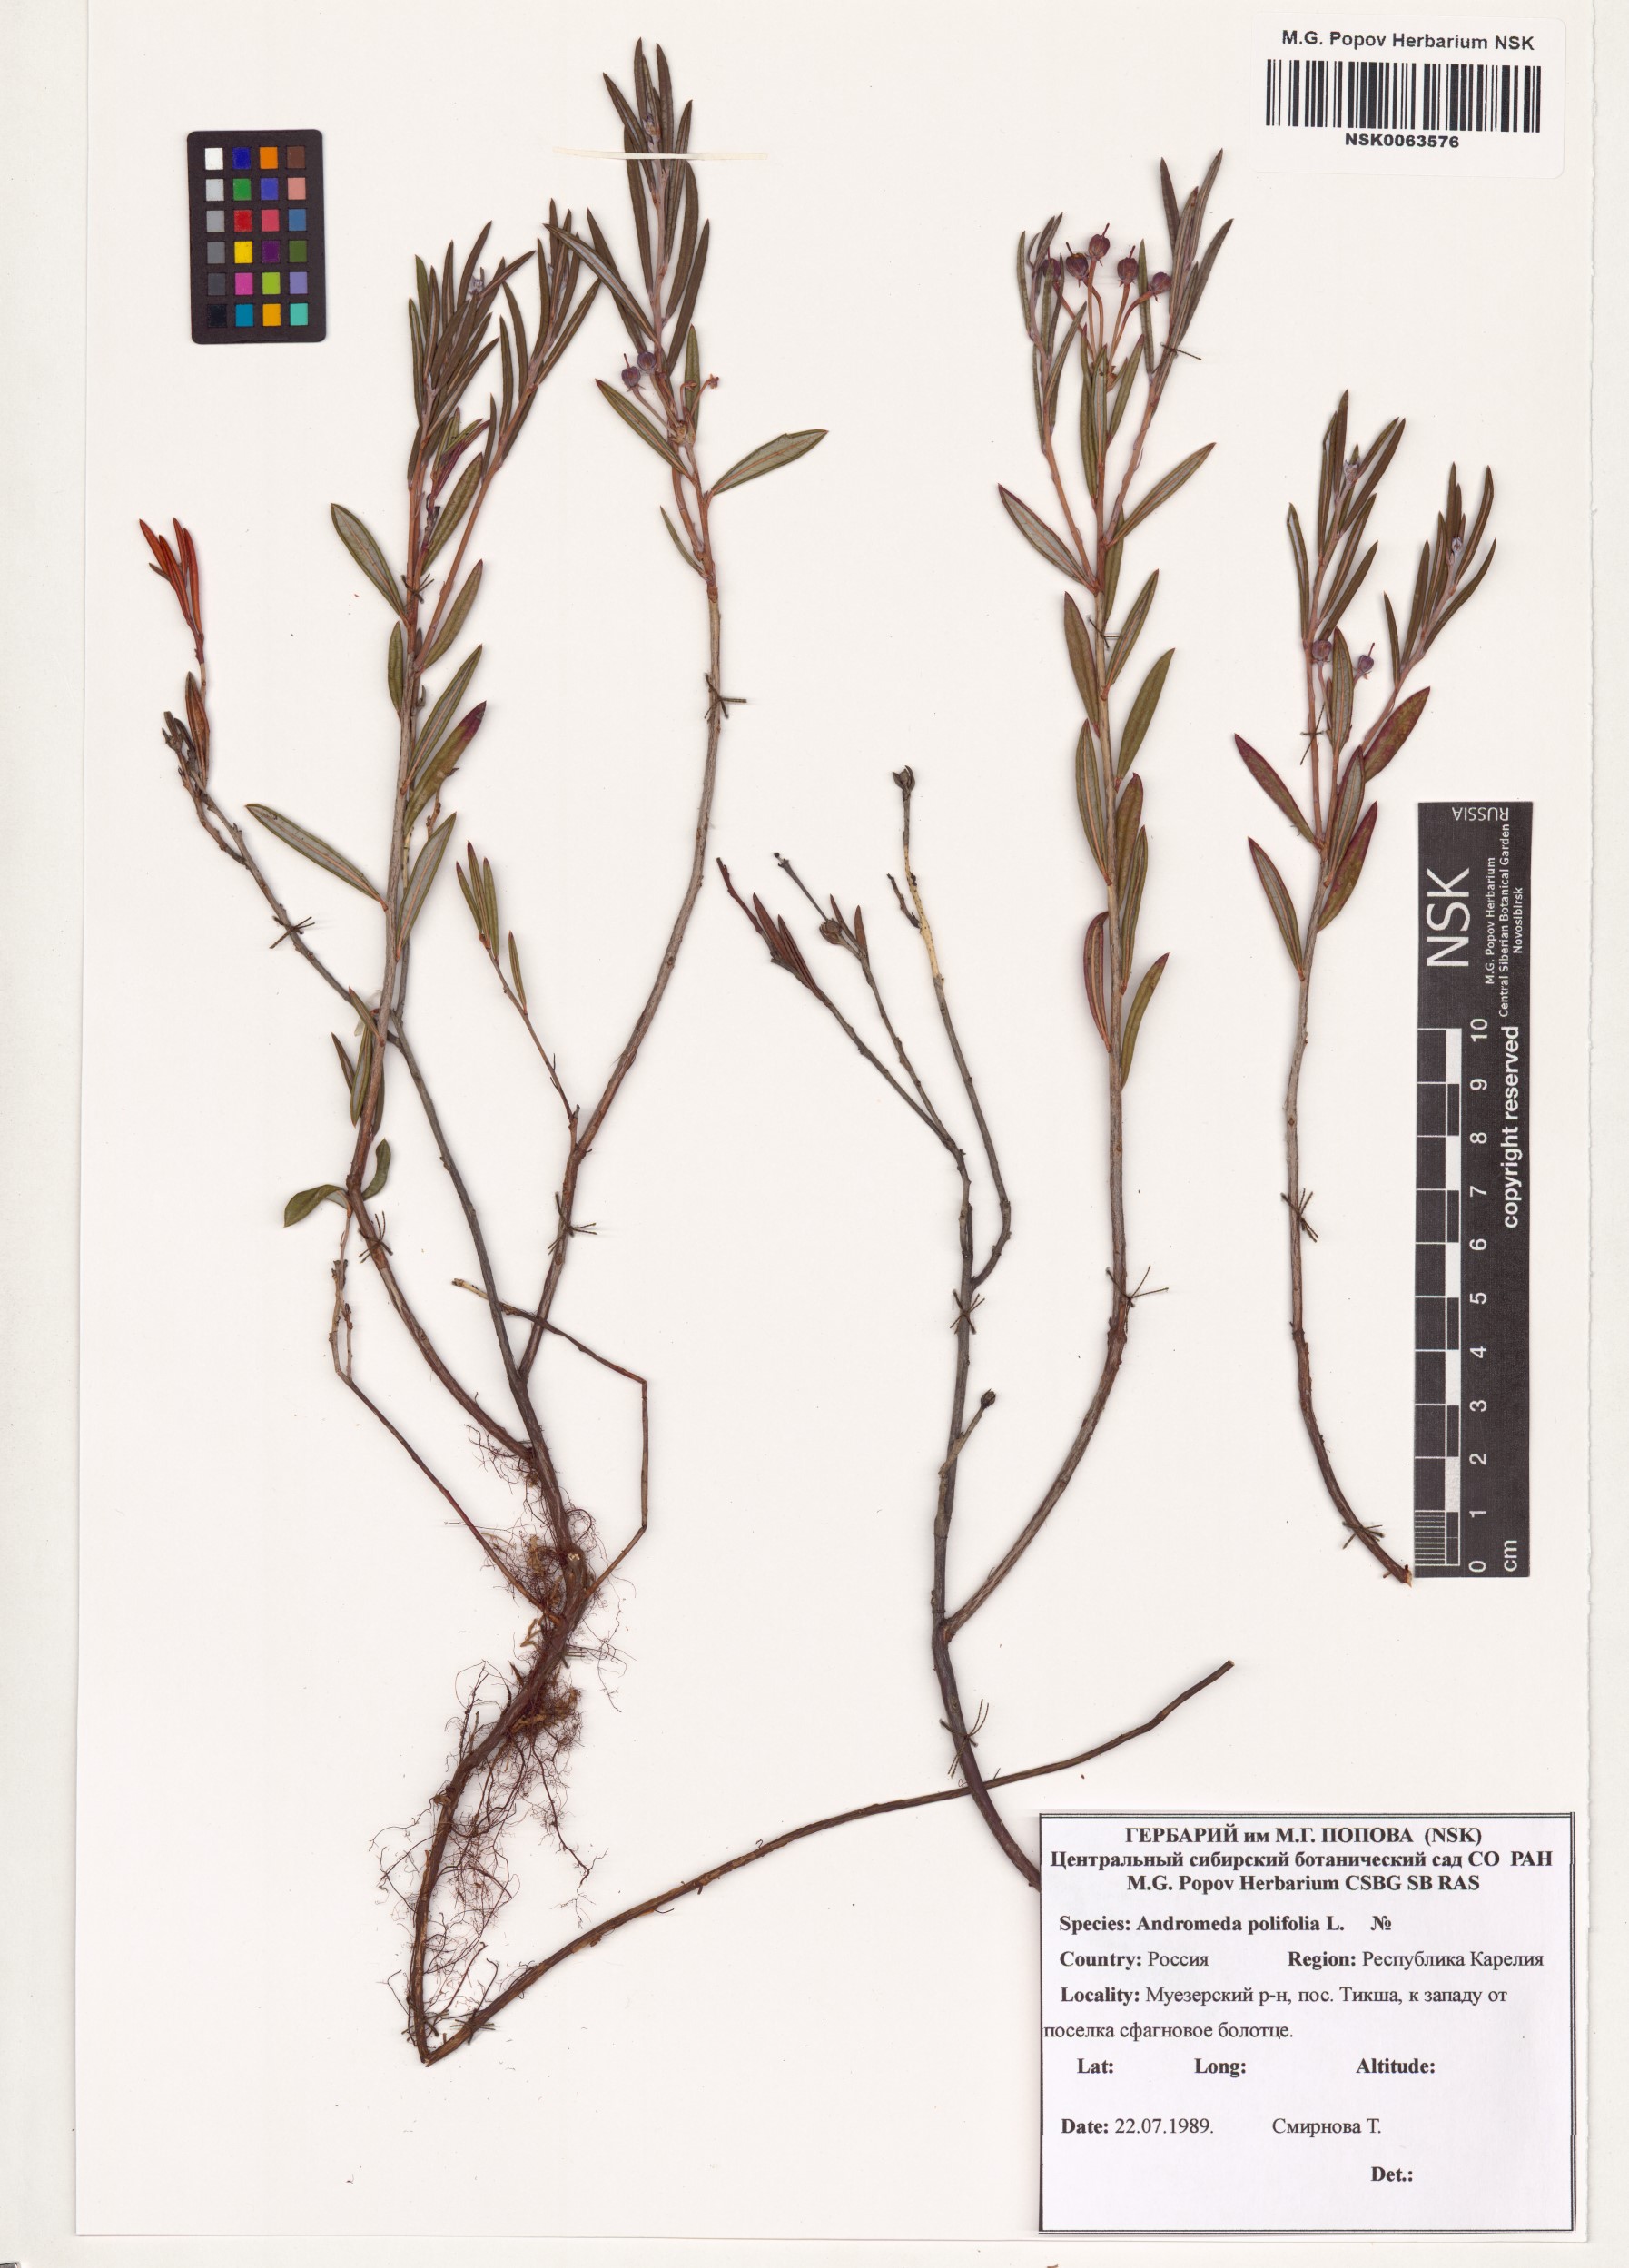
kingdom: Plantae
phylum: Tracheophyta
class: Magnoliopsida
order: Ericales
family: Ericaceae
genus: Andromeda
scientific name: Andromeda polifolia
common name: Bog-rosemary
